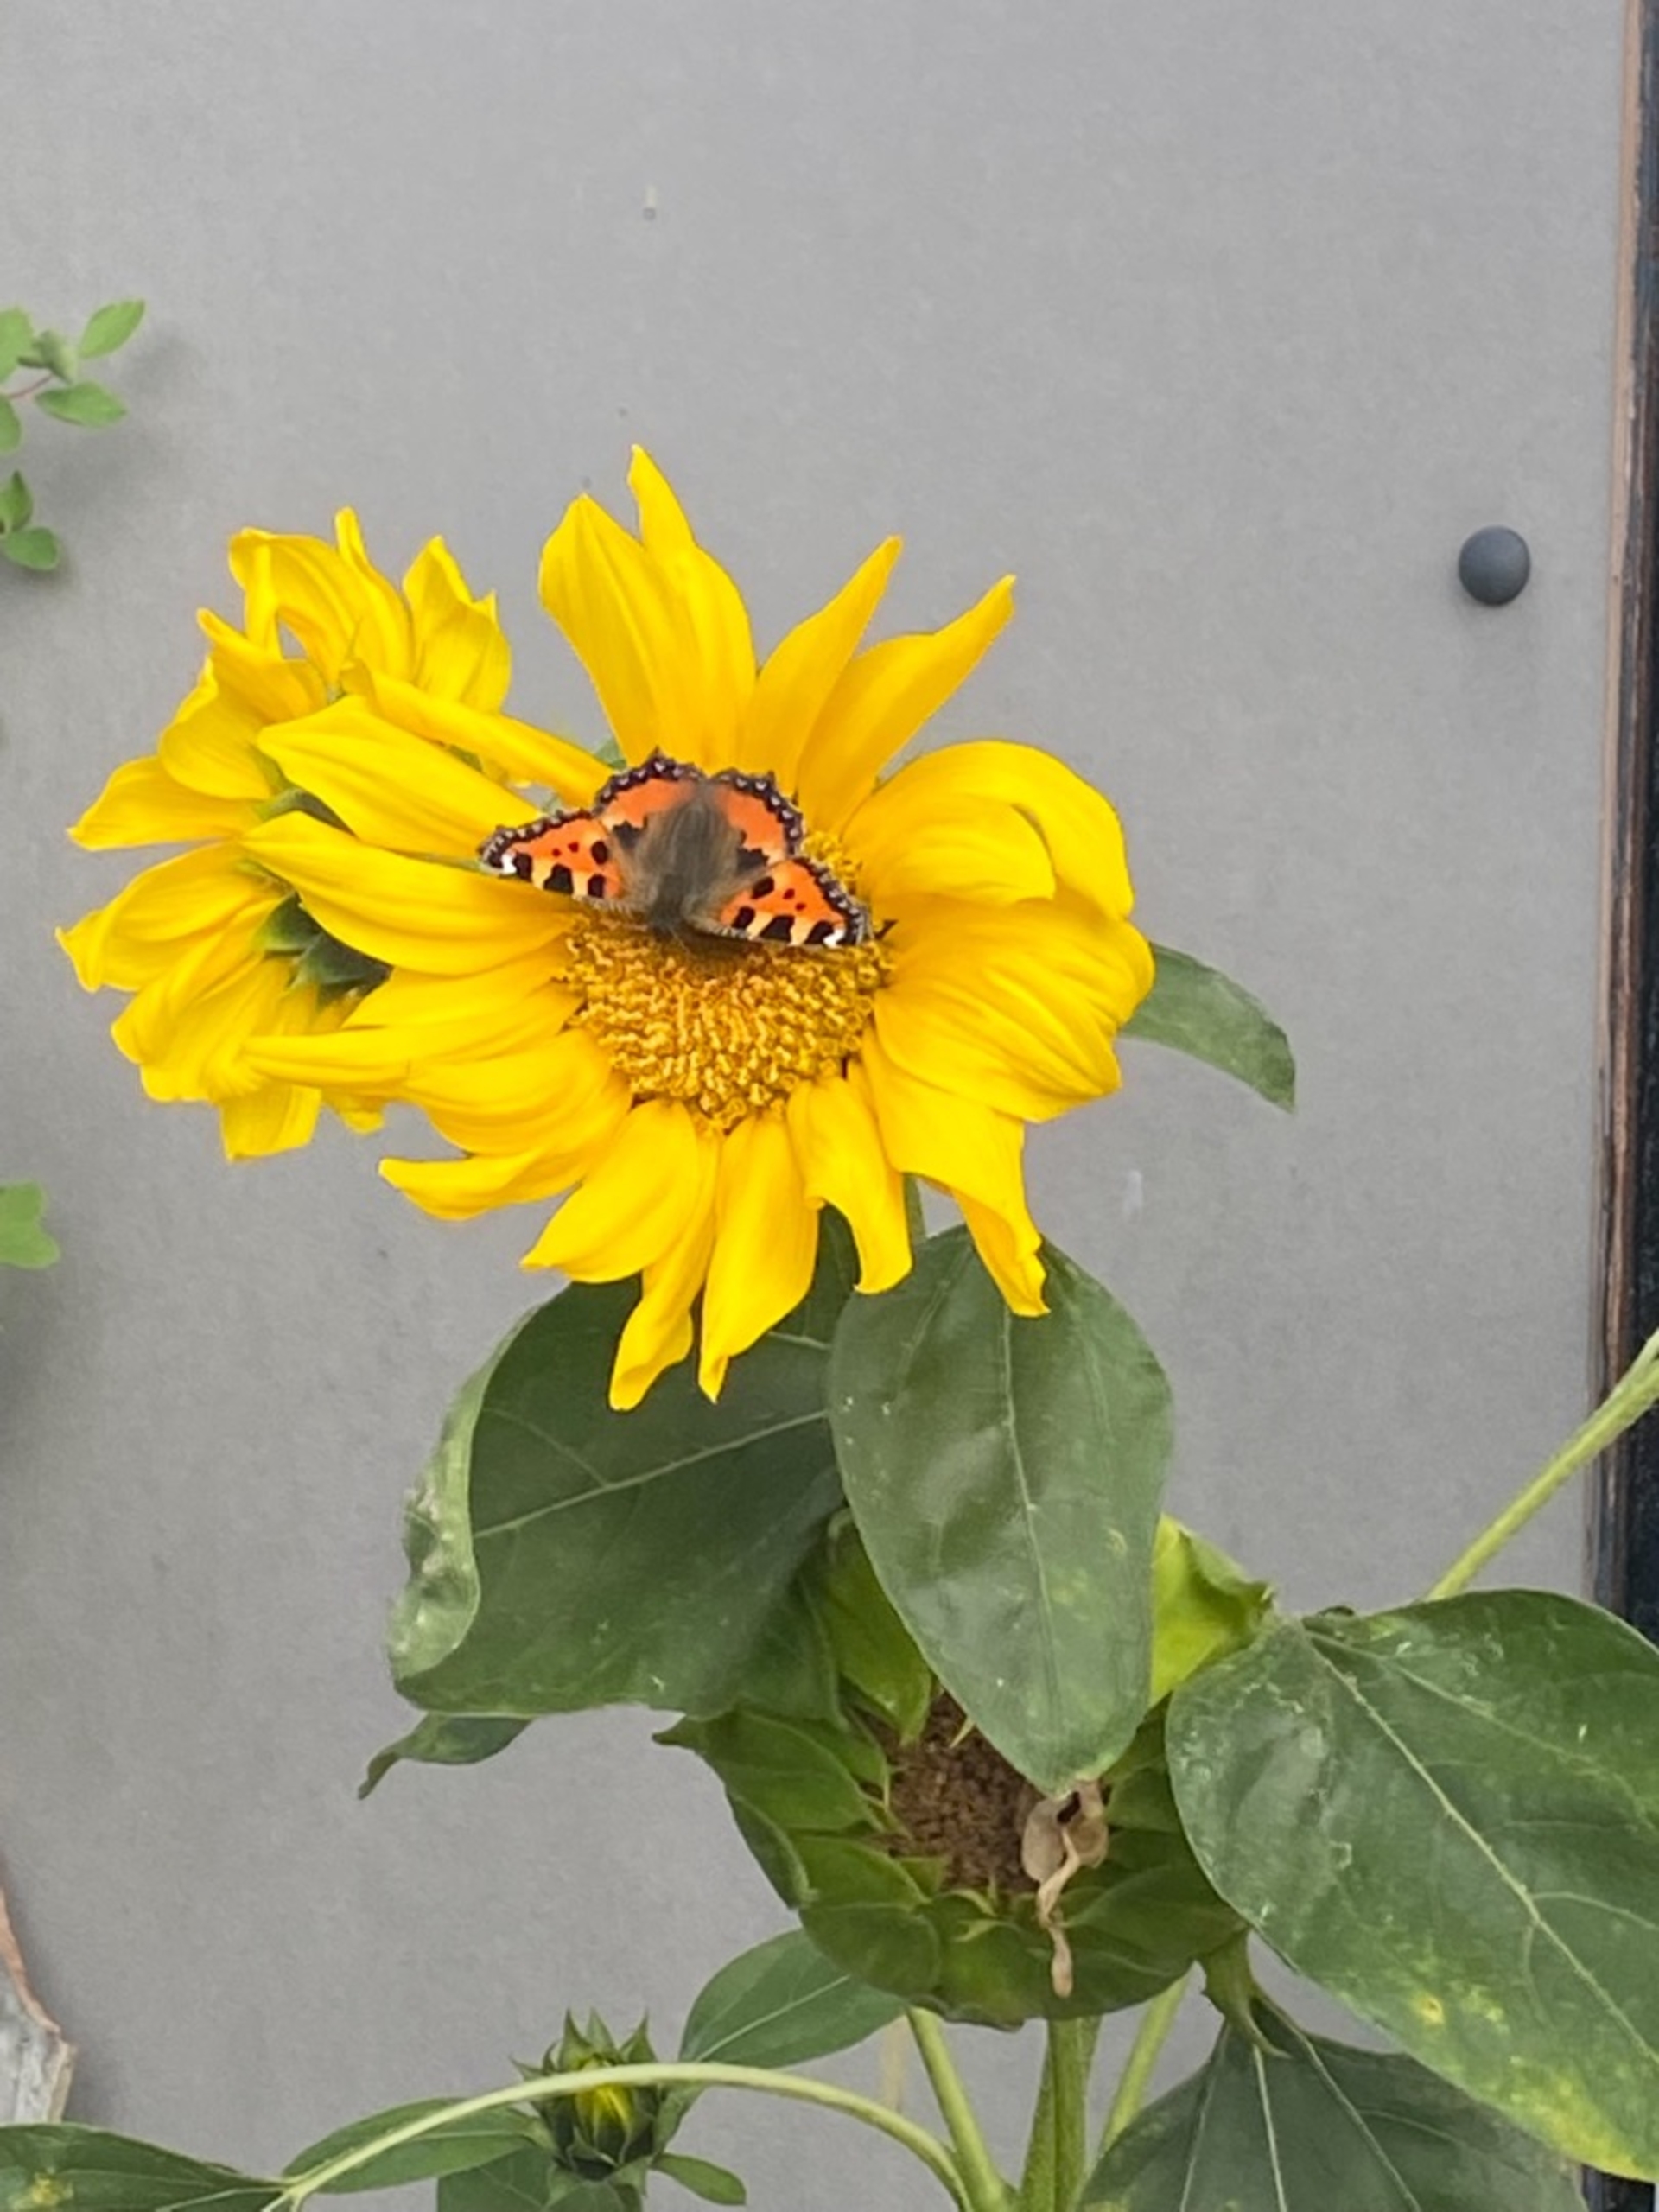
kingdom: Animalia
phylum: Arthropoda
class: Insecta
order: Lepidoptera
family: Nymphalidae
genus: Aglais
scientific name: Aglais urticae
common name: Nældens takvinge
